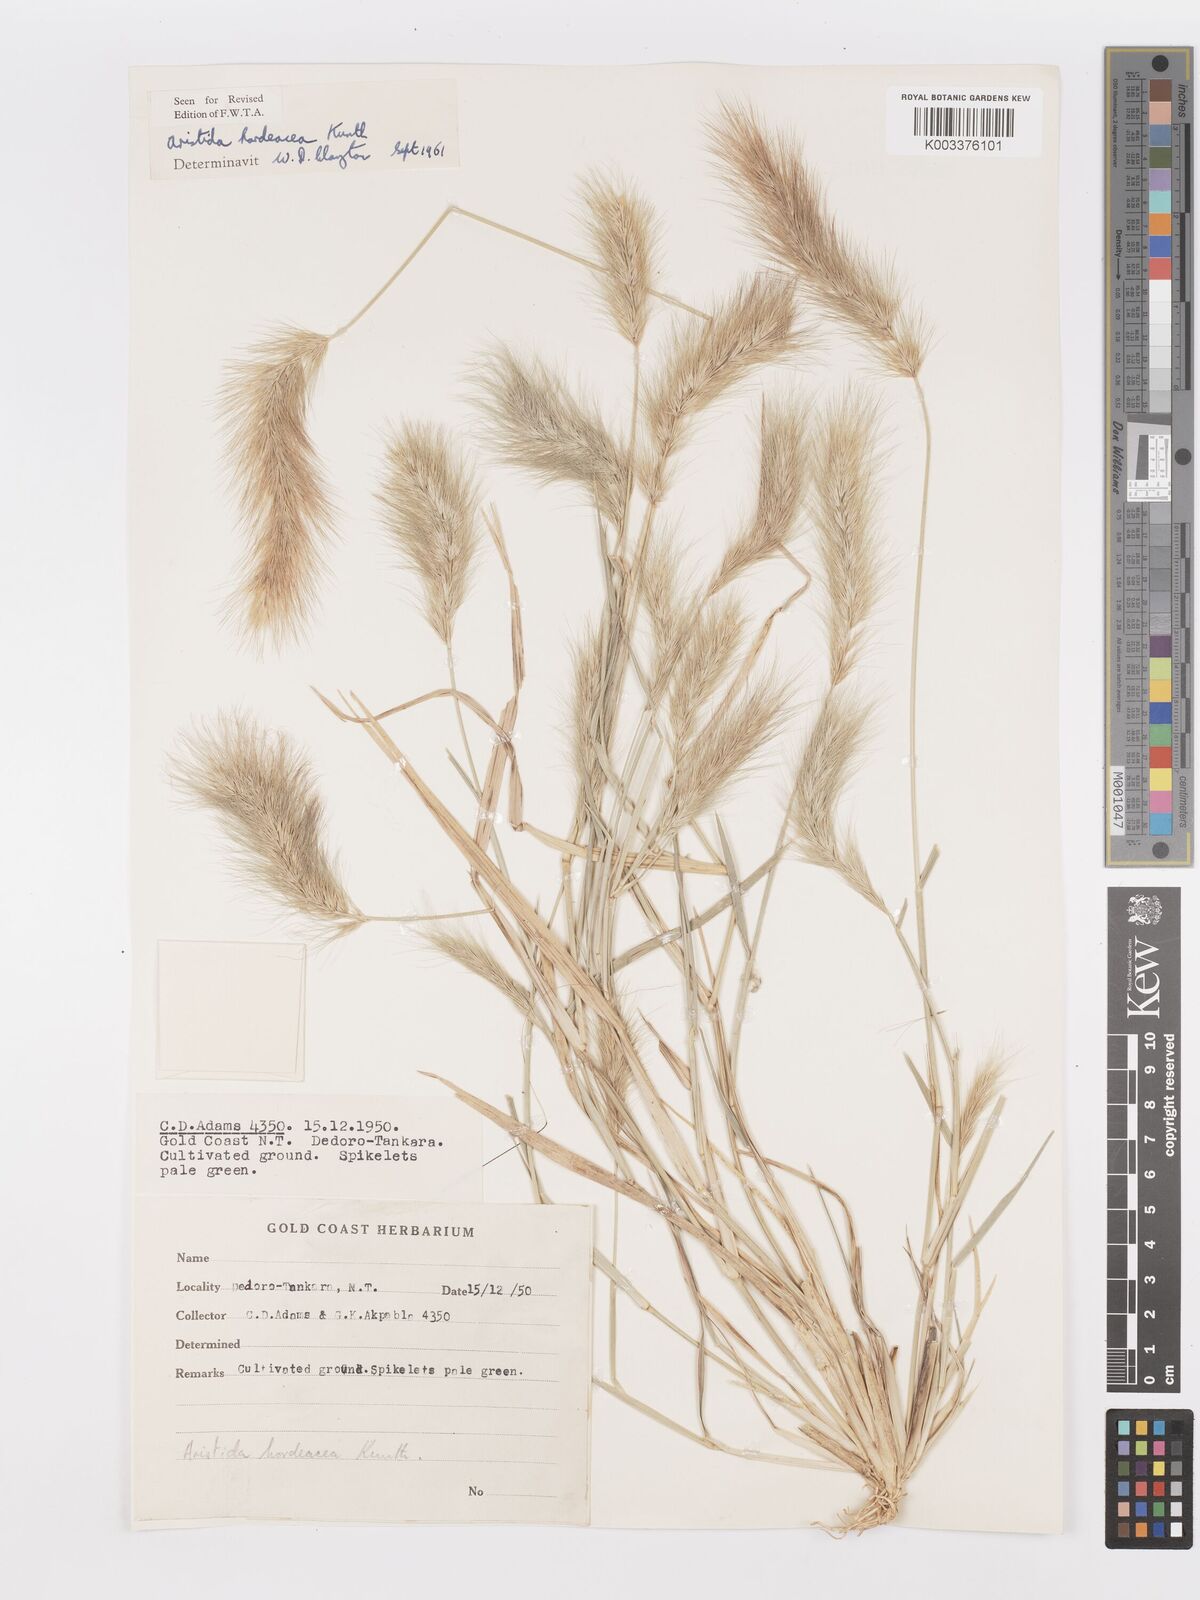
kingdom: Plantae
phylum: Tracheophyta
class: Liliopsida
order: Poales
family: Poaceae
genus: Aristida
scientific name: Aristida hordeacea
